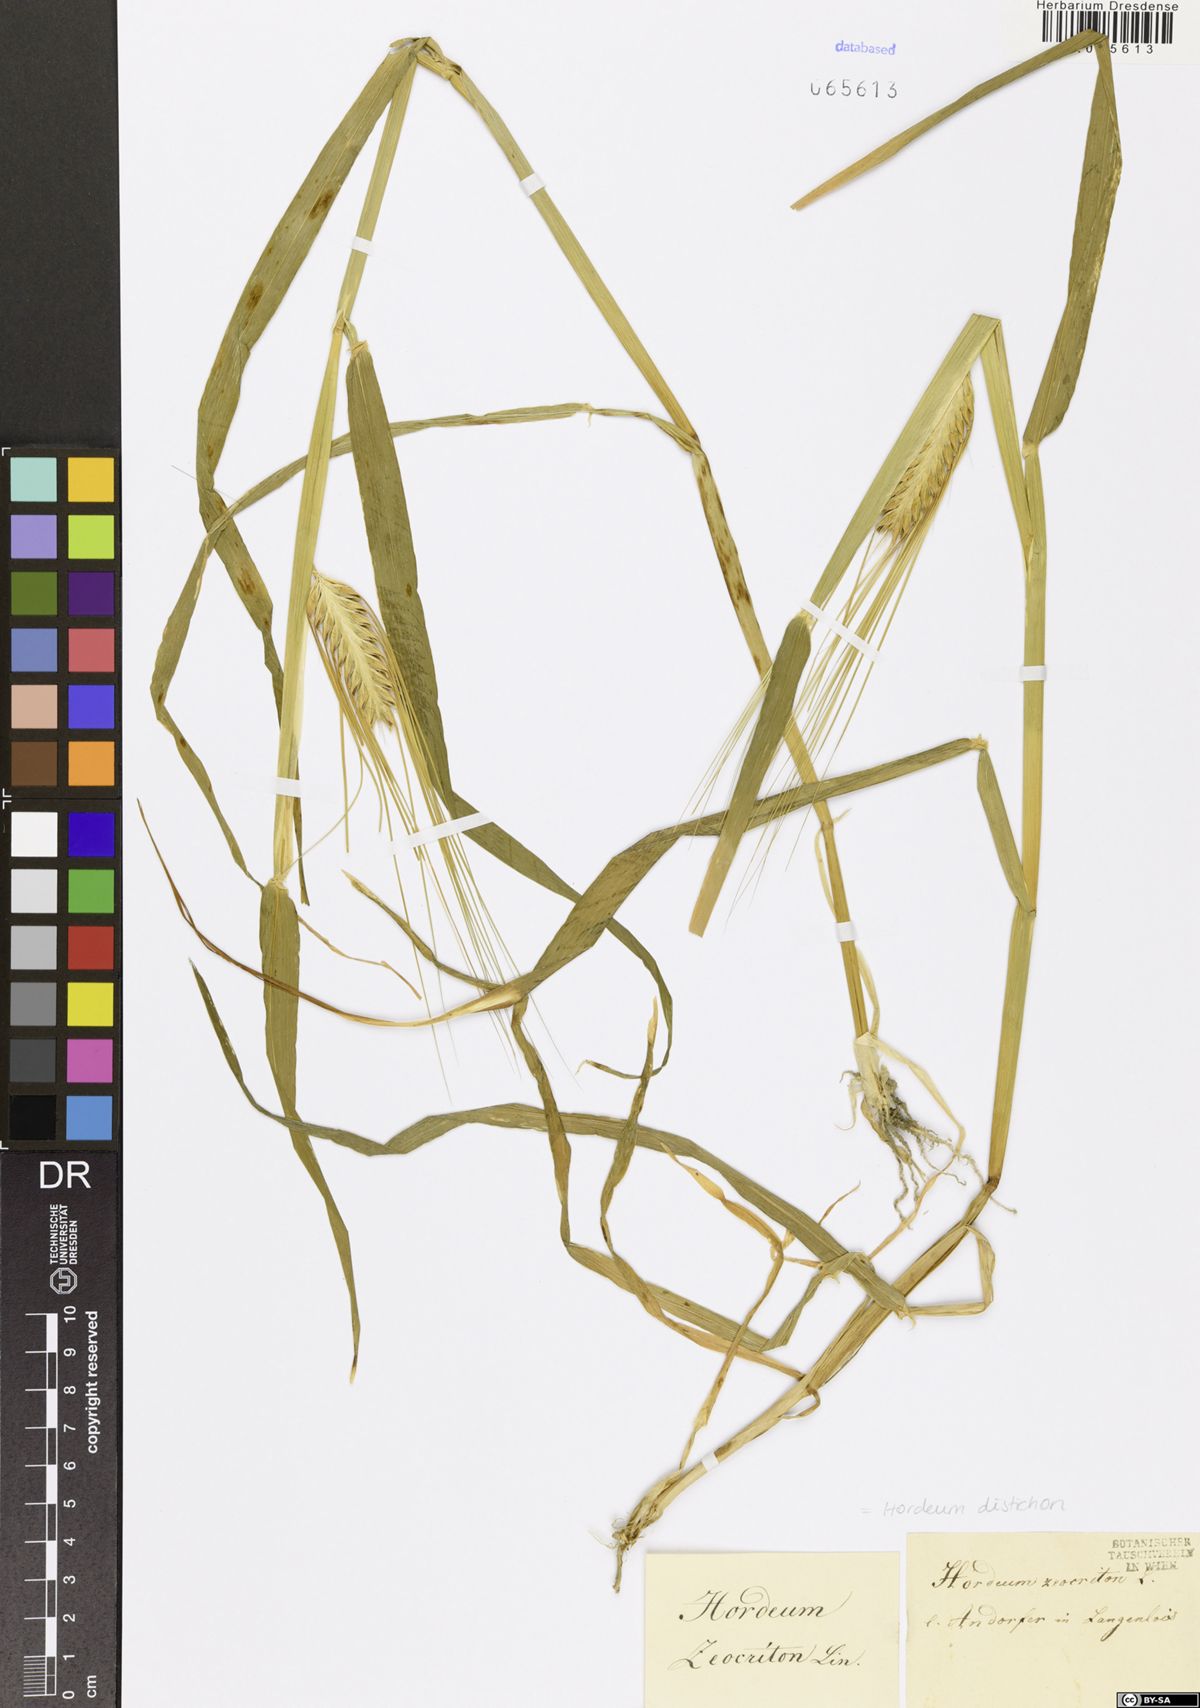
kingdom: Plantae
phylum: Tracheophyta
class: Liliopsida
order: Poales
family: Poaceae
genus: Hordeum
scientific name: Hordeum distichon
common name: Two-rowed barley
